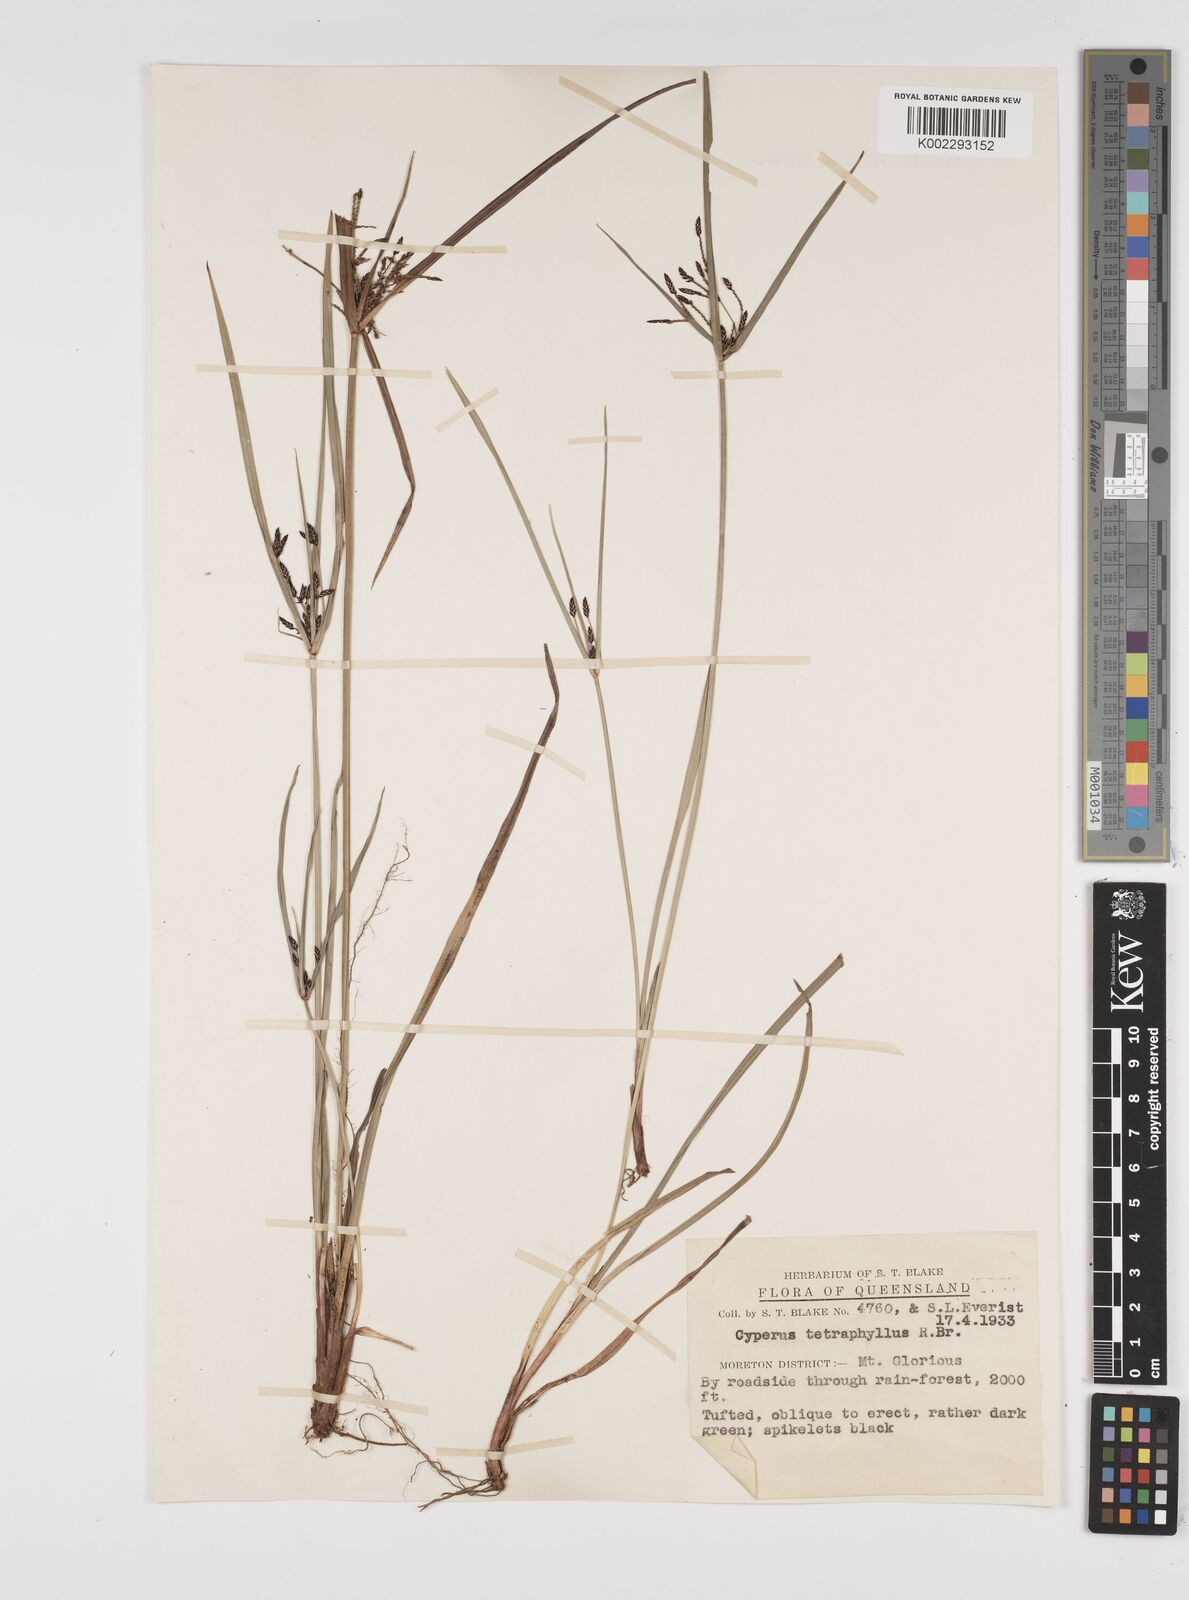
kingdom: Plantae
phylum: Tracheophyta
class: Liliopsida
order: Poales
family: Cyperaceae
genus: Cyperus
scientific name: Cyperus tetraphyllus
